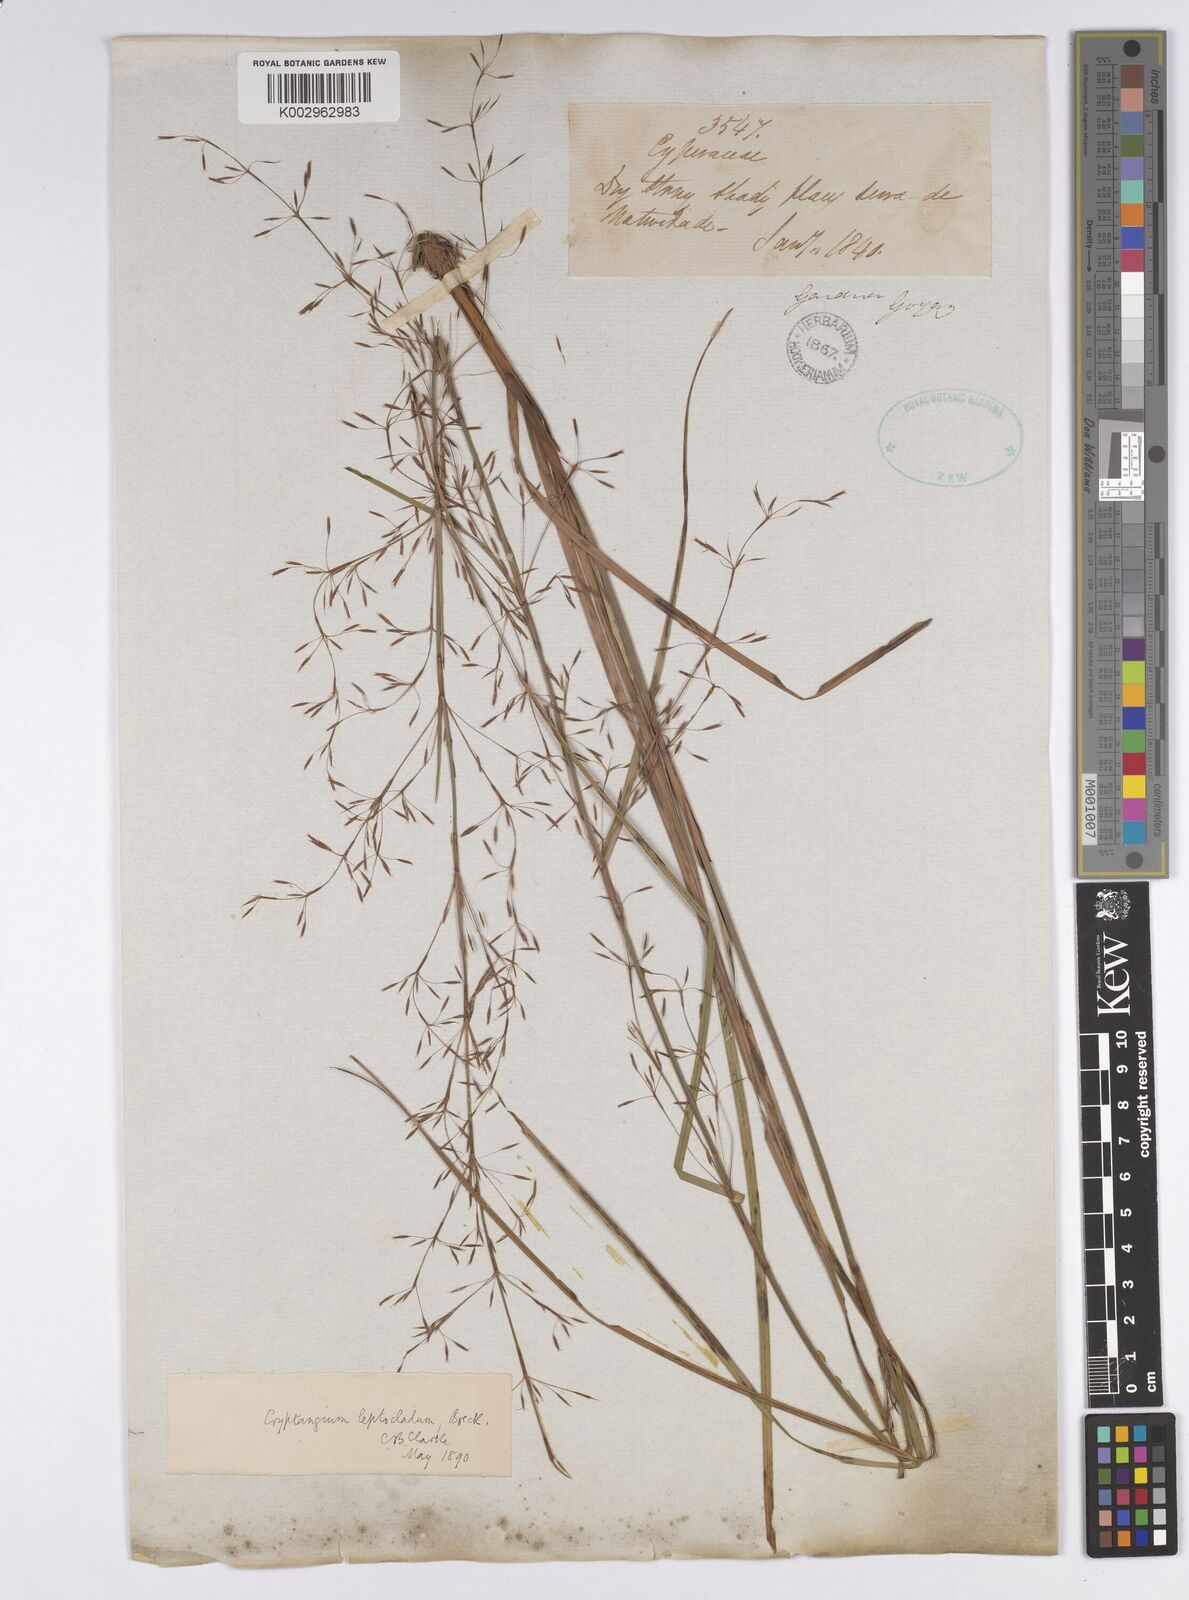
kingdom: Plantae
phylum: Tracheophyta
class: Liliopsida
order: Poales
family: Cyperaceae
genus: Cryptangium
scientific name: Cryptangium verticillatum
